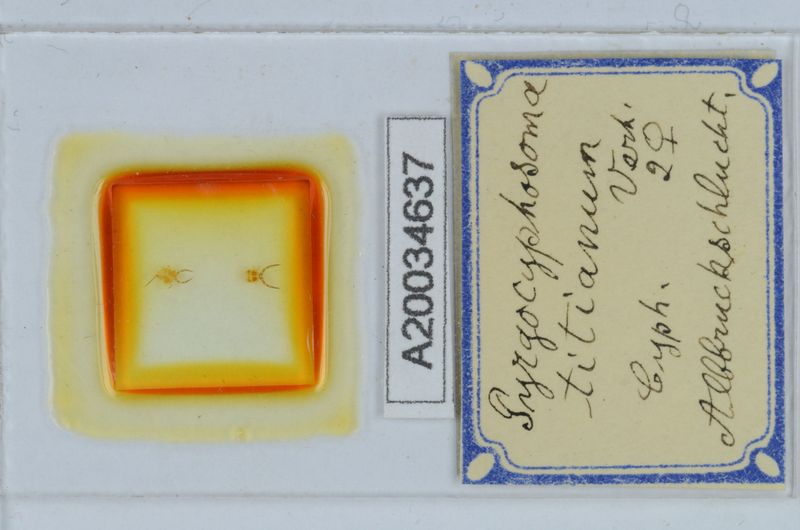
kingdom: Animalia
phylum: Arthropoda
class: Diplopoda
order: Chordeumatida
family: Craspedosomatidae
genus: Pyrgocyphosoma
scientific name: Pyrgocyphosoma titianum
